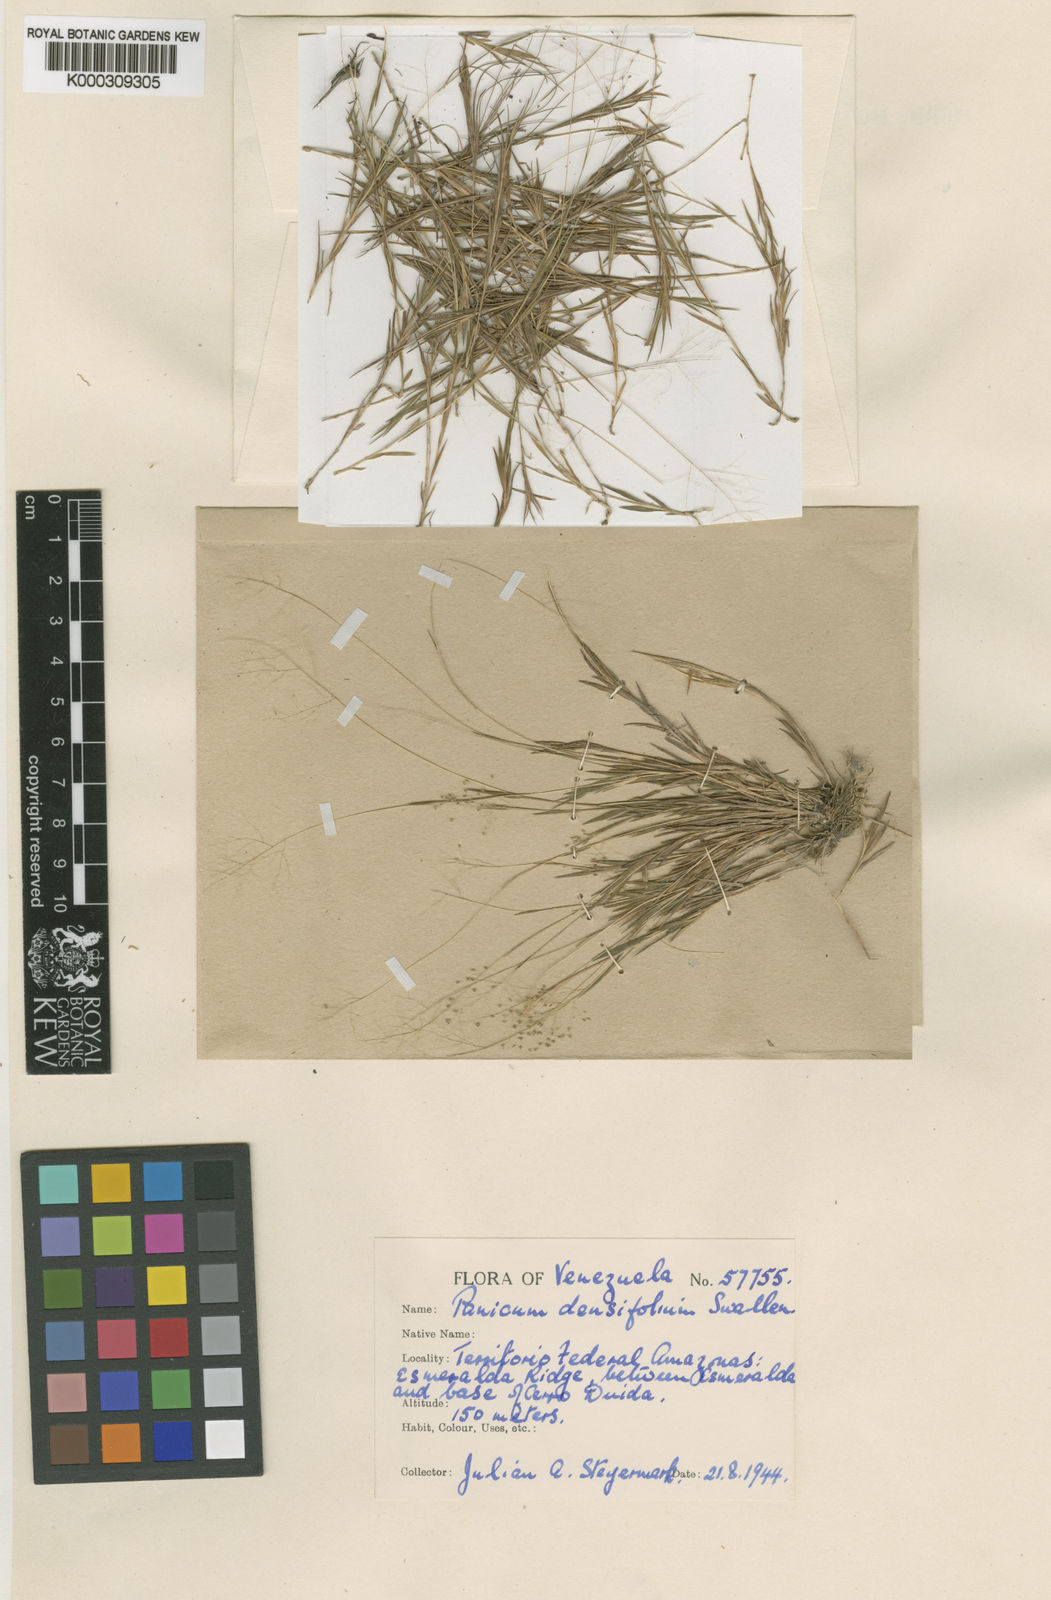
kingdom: Plantae
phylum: Tracheophyta
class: Liliopsida
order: Poales
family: Poaceae
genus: Trichanthecium
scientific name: Trichanthecium micranthum
